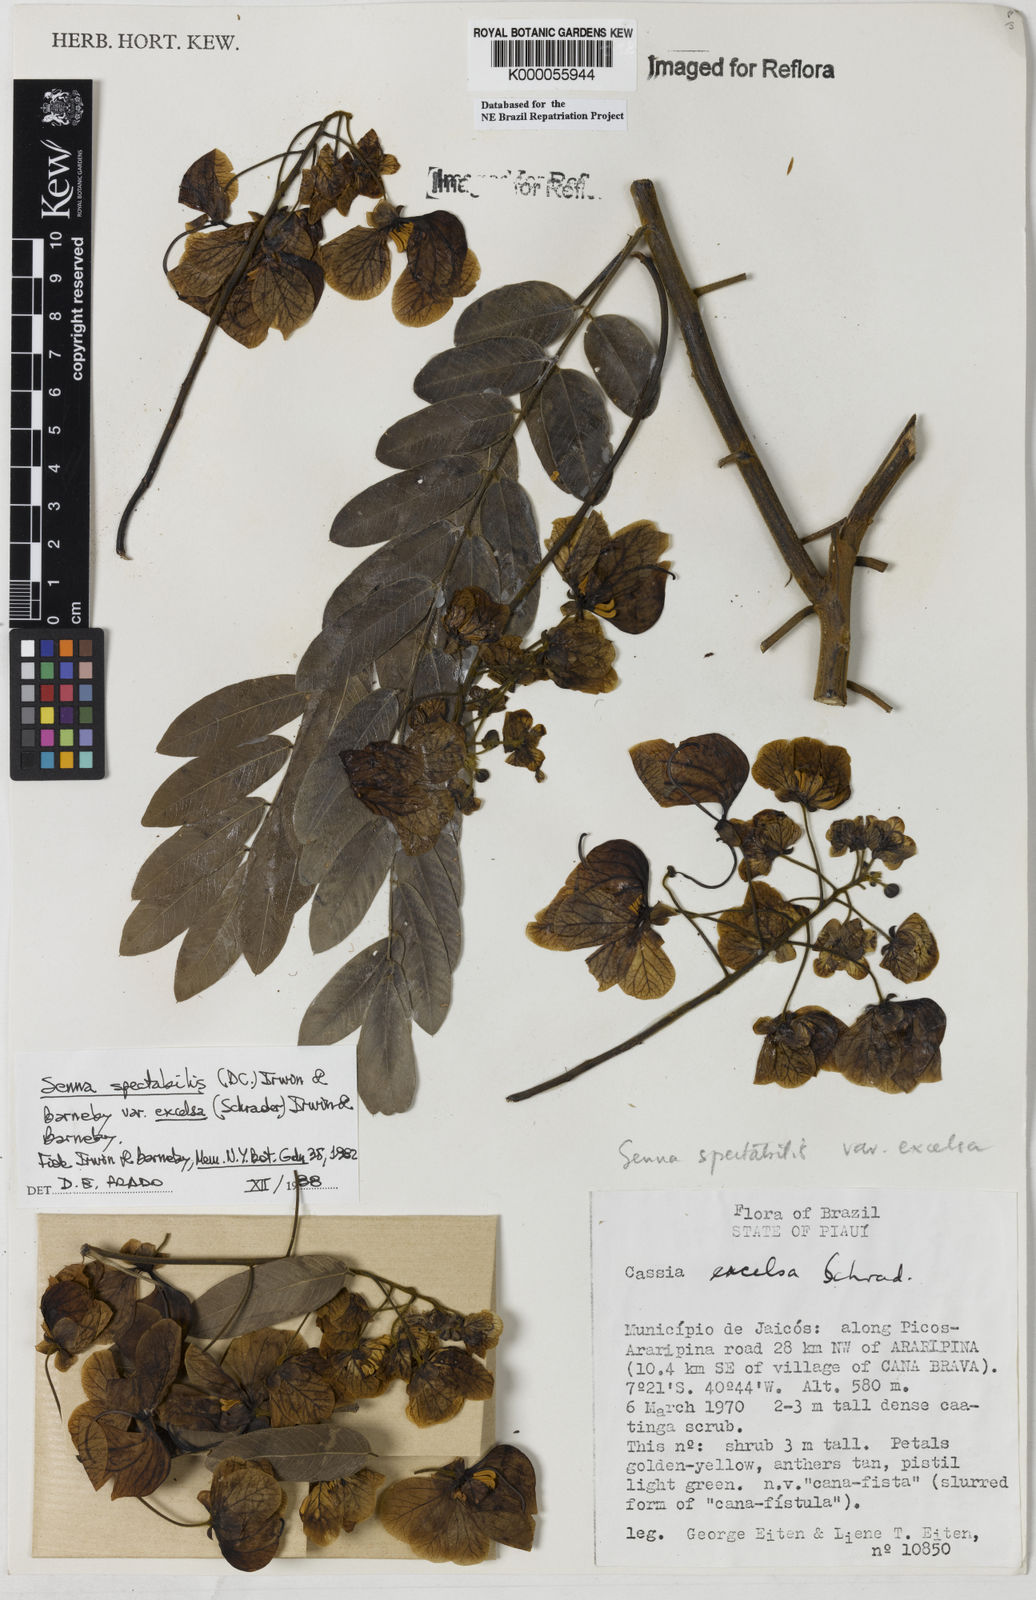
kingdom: Plantae
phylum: Tracheophyta
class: Magnoliopsida
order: Fabales
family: Fabaceae
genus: Senna
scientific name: Senna spectabilis
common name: Casia amarilla
